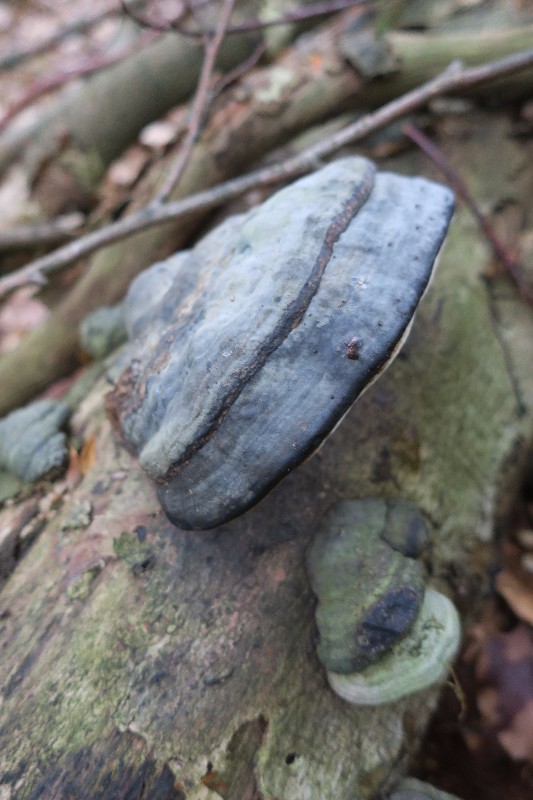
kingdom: Fungi
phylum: Basidiomycota
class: Agaricomycetes
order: Polyporales
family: Polyporaceae
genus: Fomes
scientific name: Fomes fomentarius
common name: tøndersvamp
